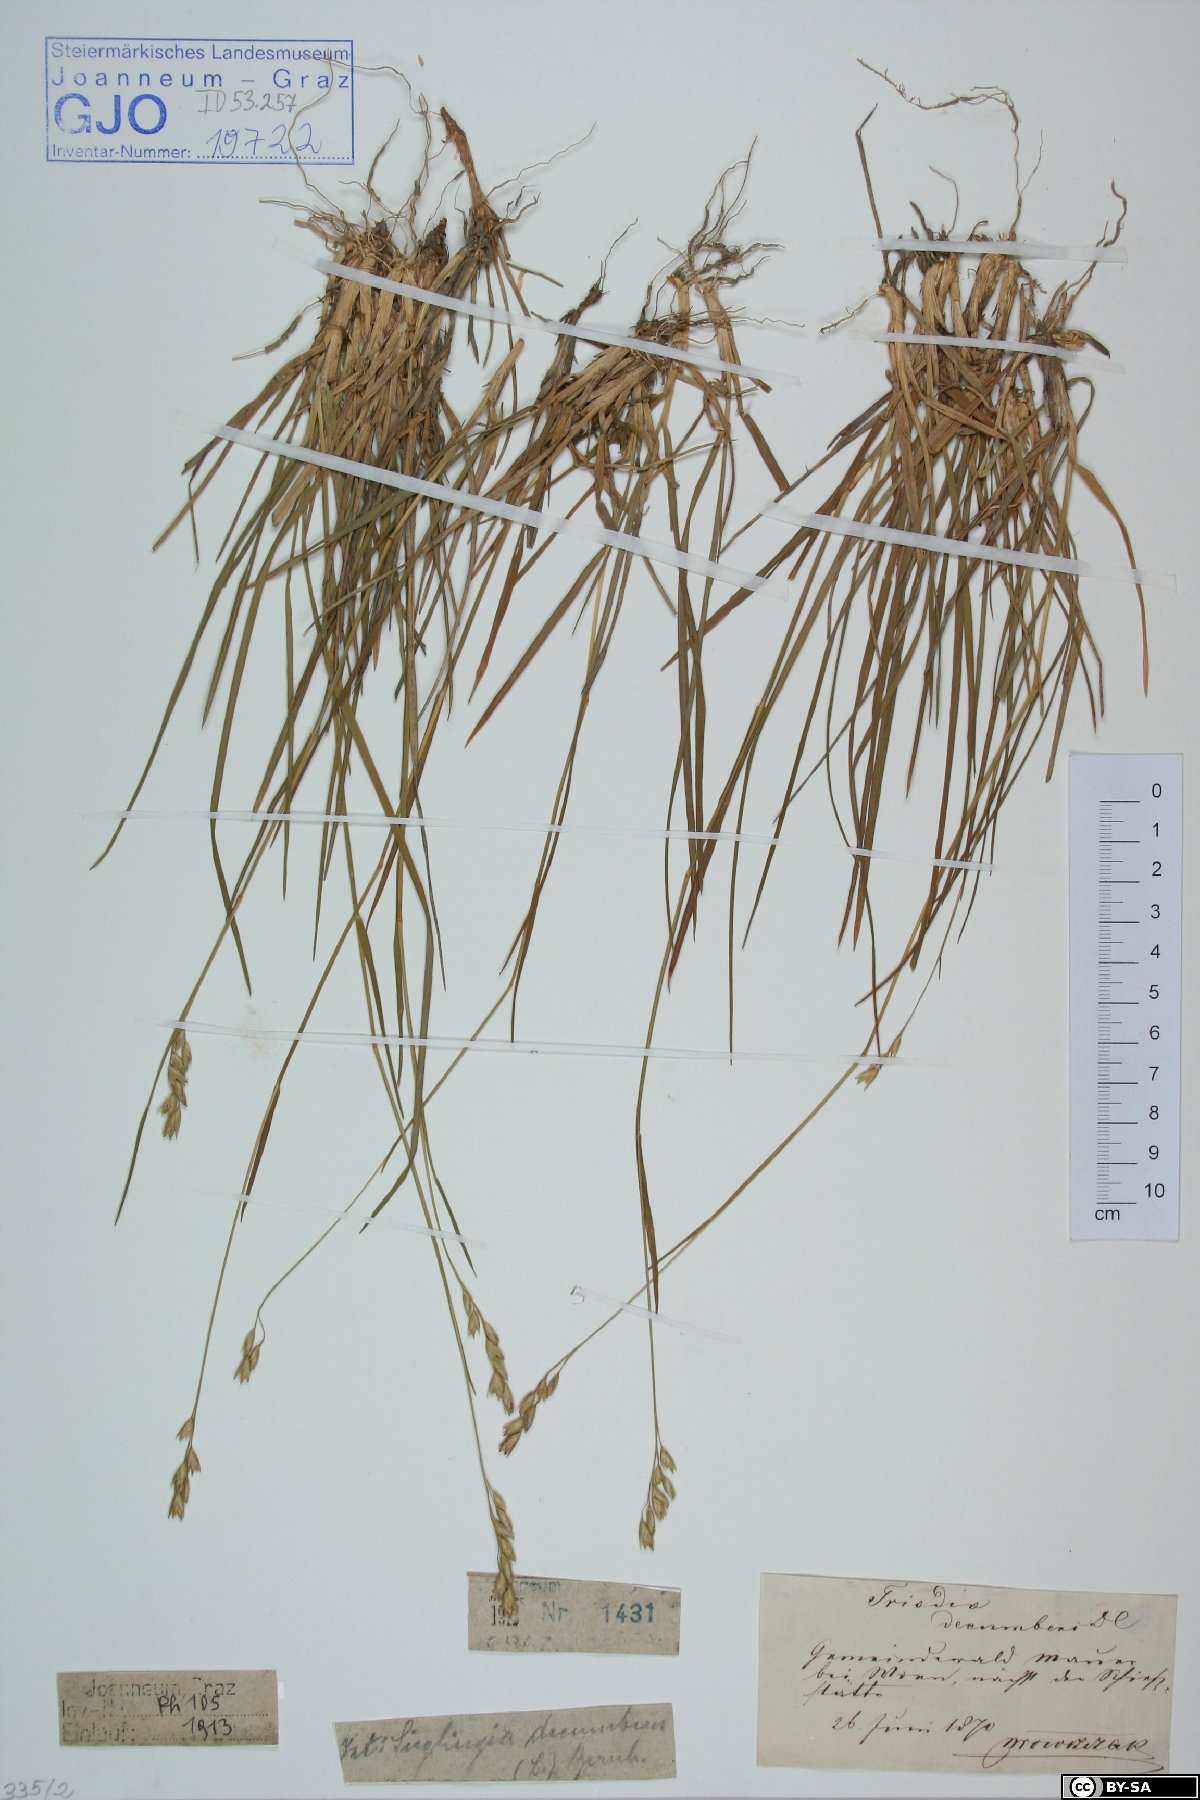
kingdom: Plantae
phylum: Tracheophyta
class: Liliopsida
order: Poales
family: Poaceae
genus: Danthonia
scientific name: Danthonia decumbens
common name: Common heathgrass
